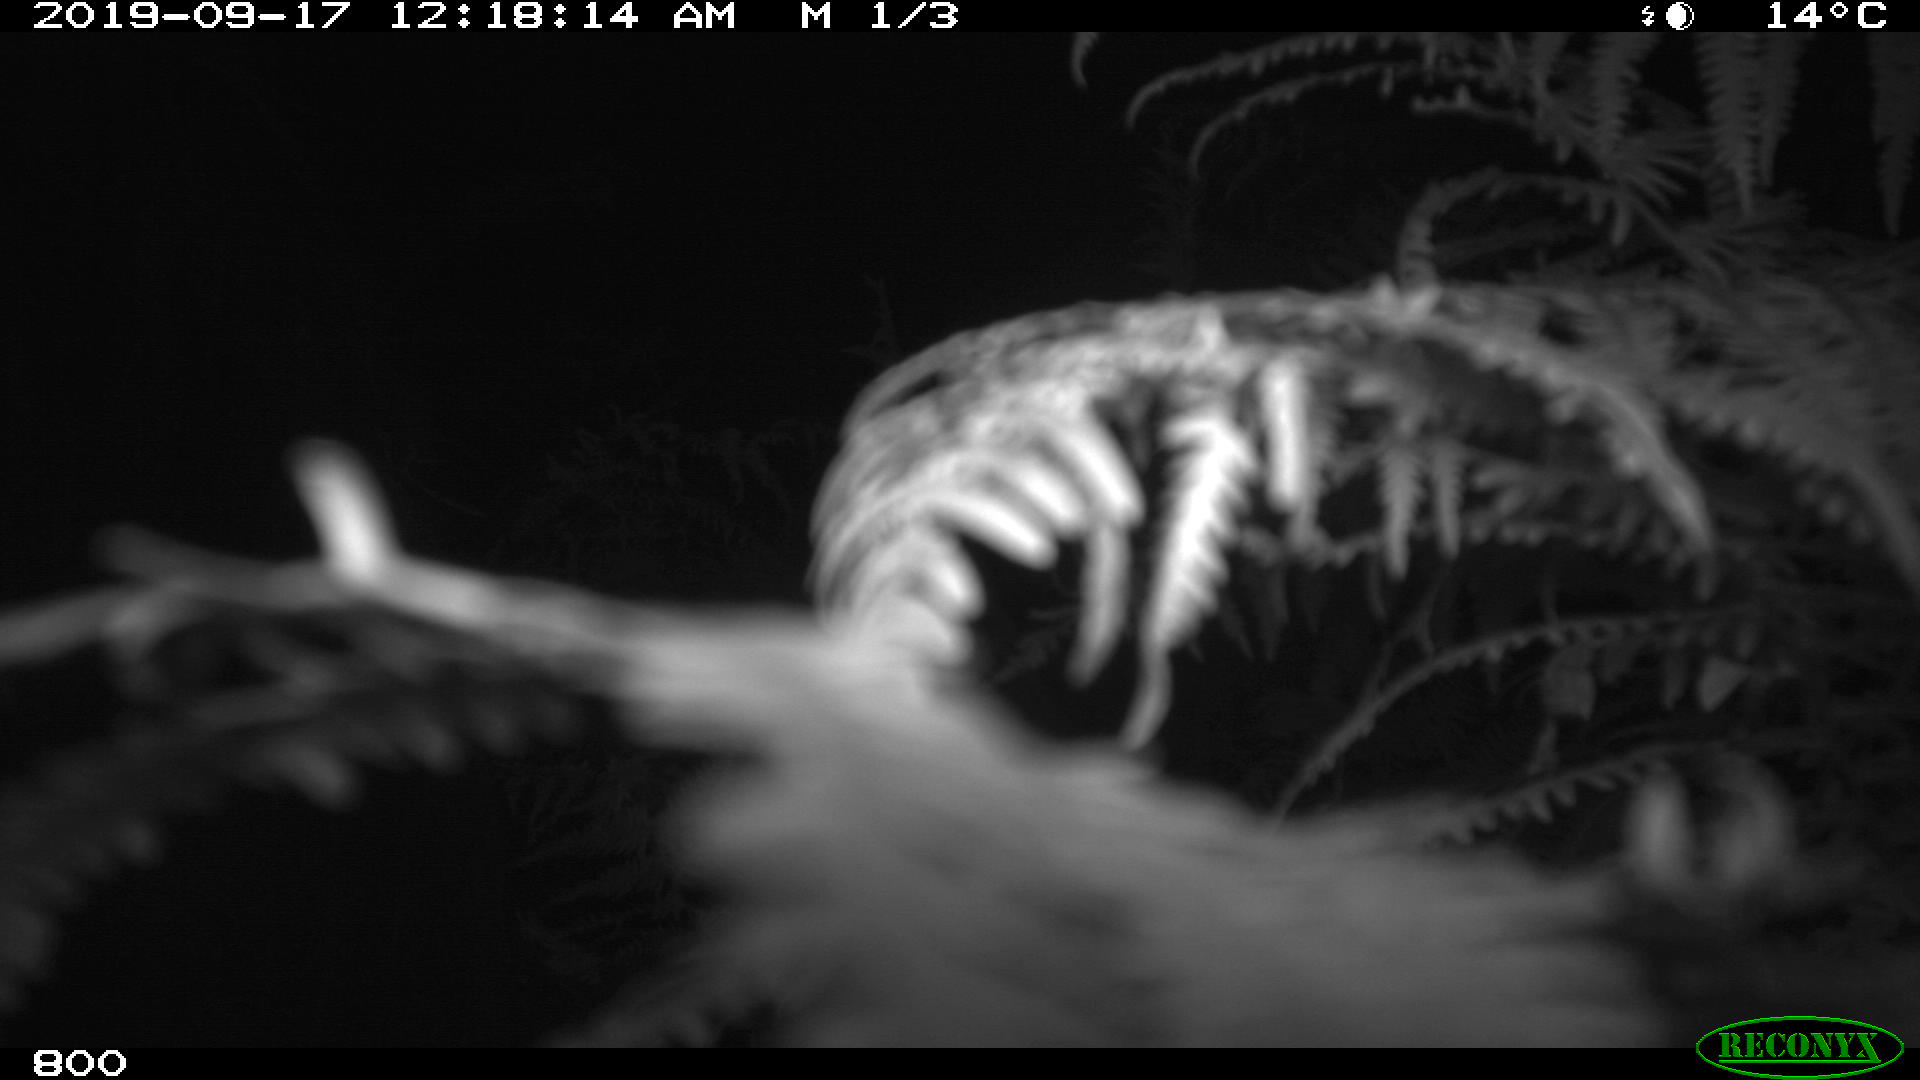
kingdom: Animalia
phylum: Chordata
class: Mammalia
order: Perissodactyla
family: Equidae
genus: Equus
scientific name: Equus caballus
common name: Horse
